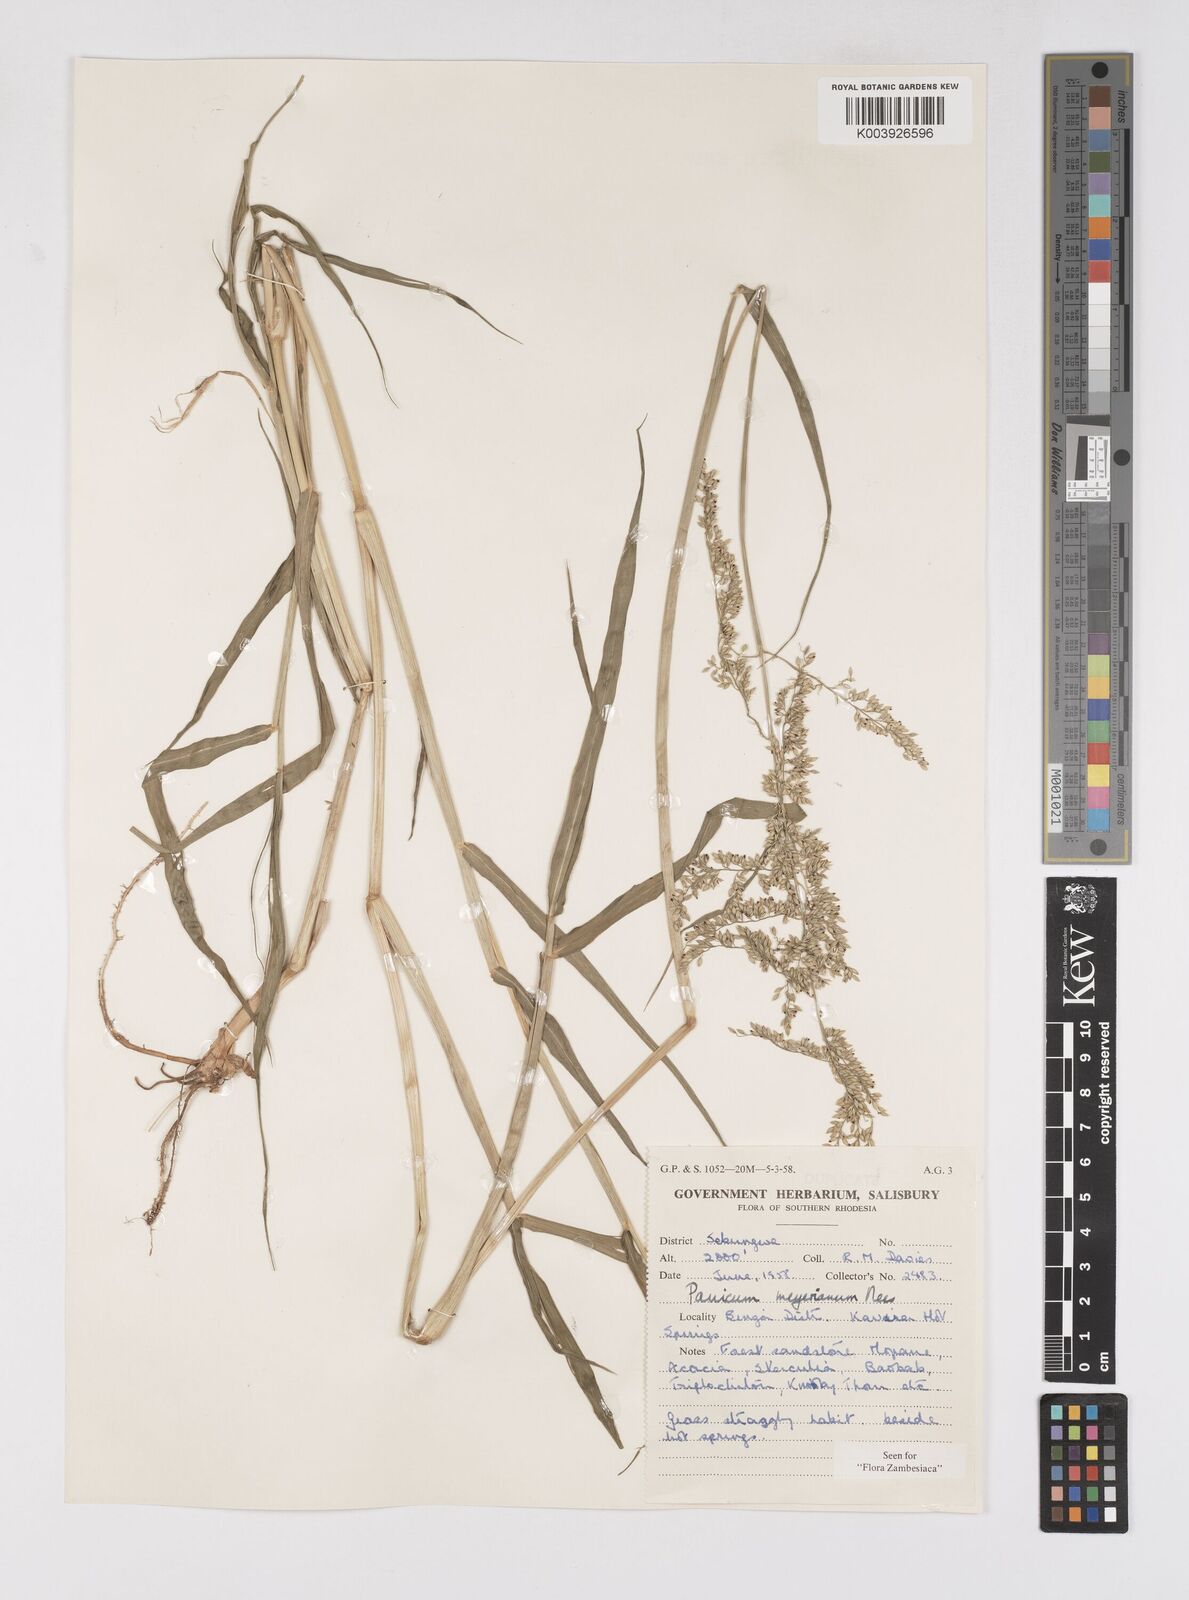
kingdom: Plantae
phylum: Tracheophyta
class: Liliopsida
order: Poales
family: Poaceae
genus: Eriochloa
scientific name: Eriochloa meyeriana
